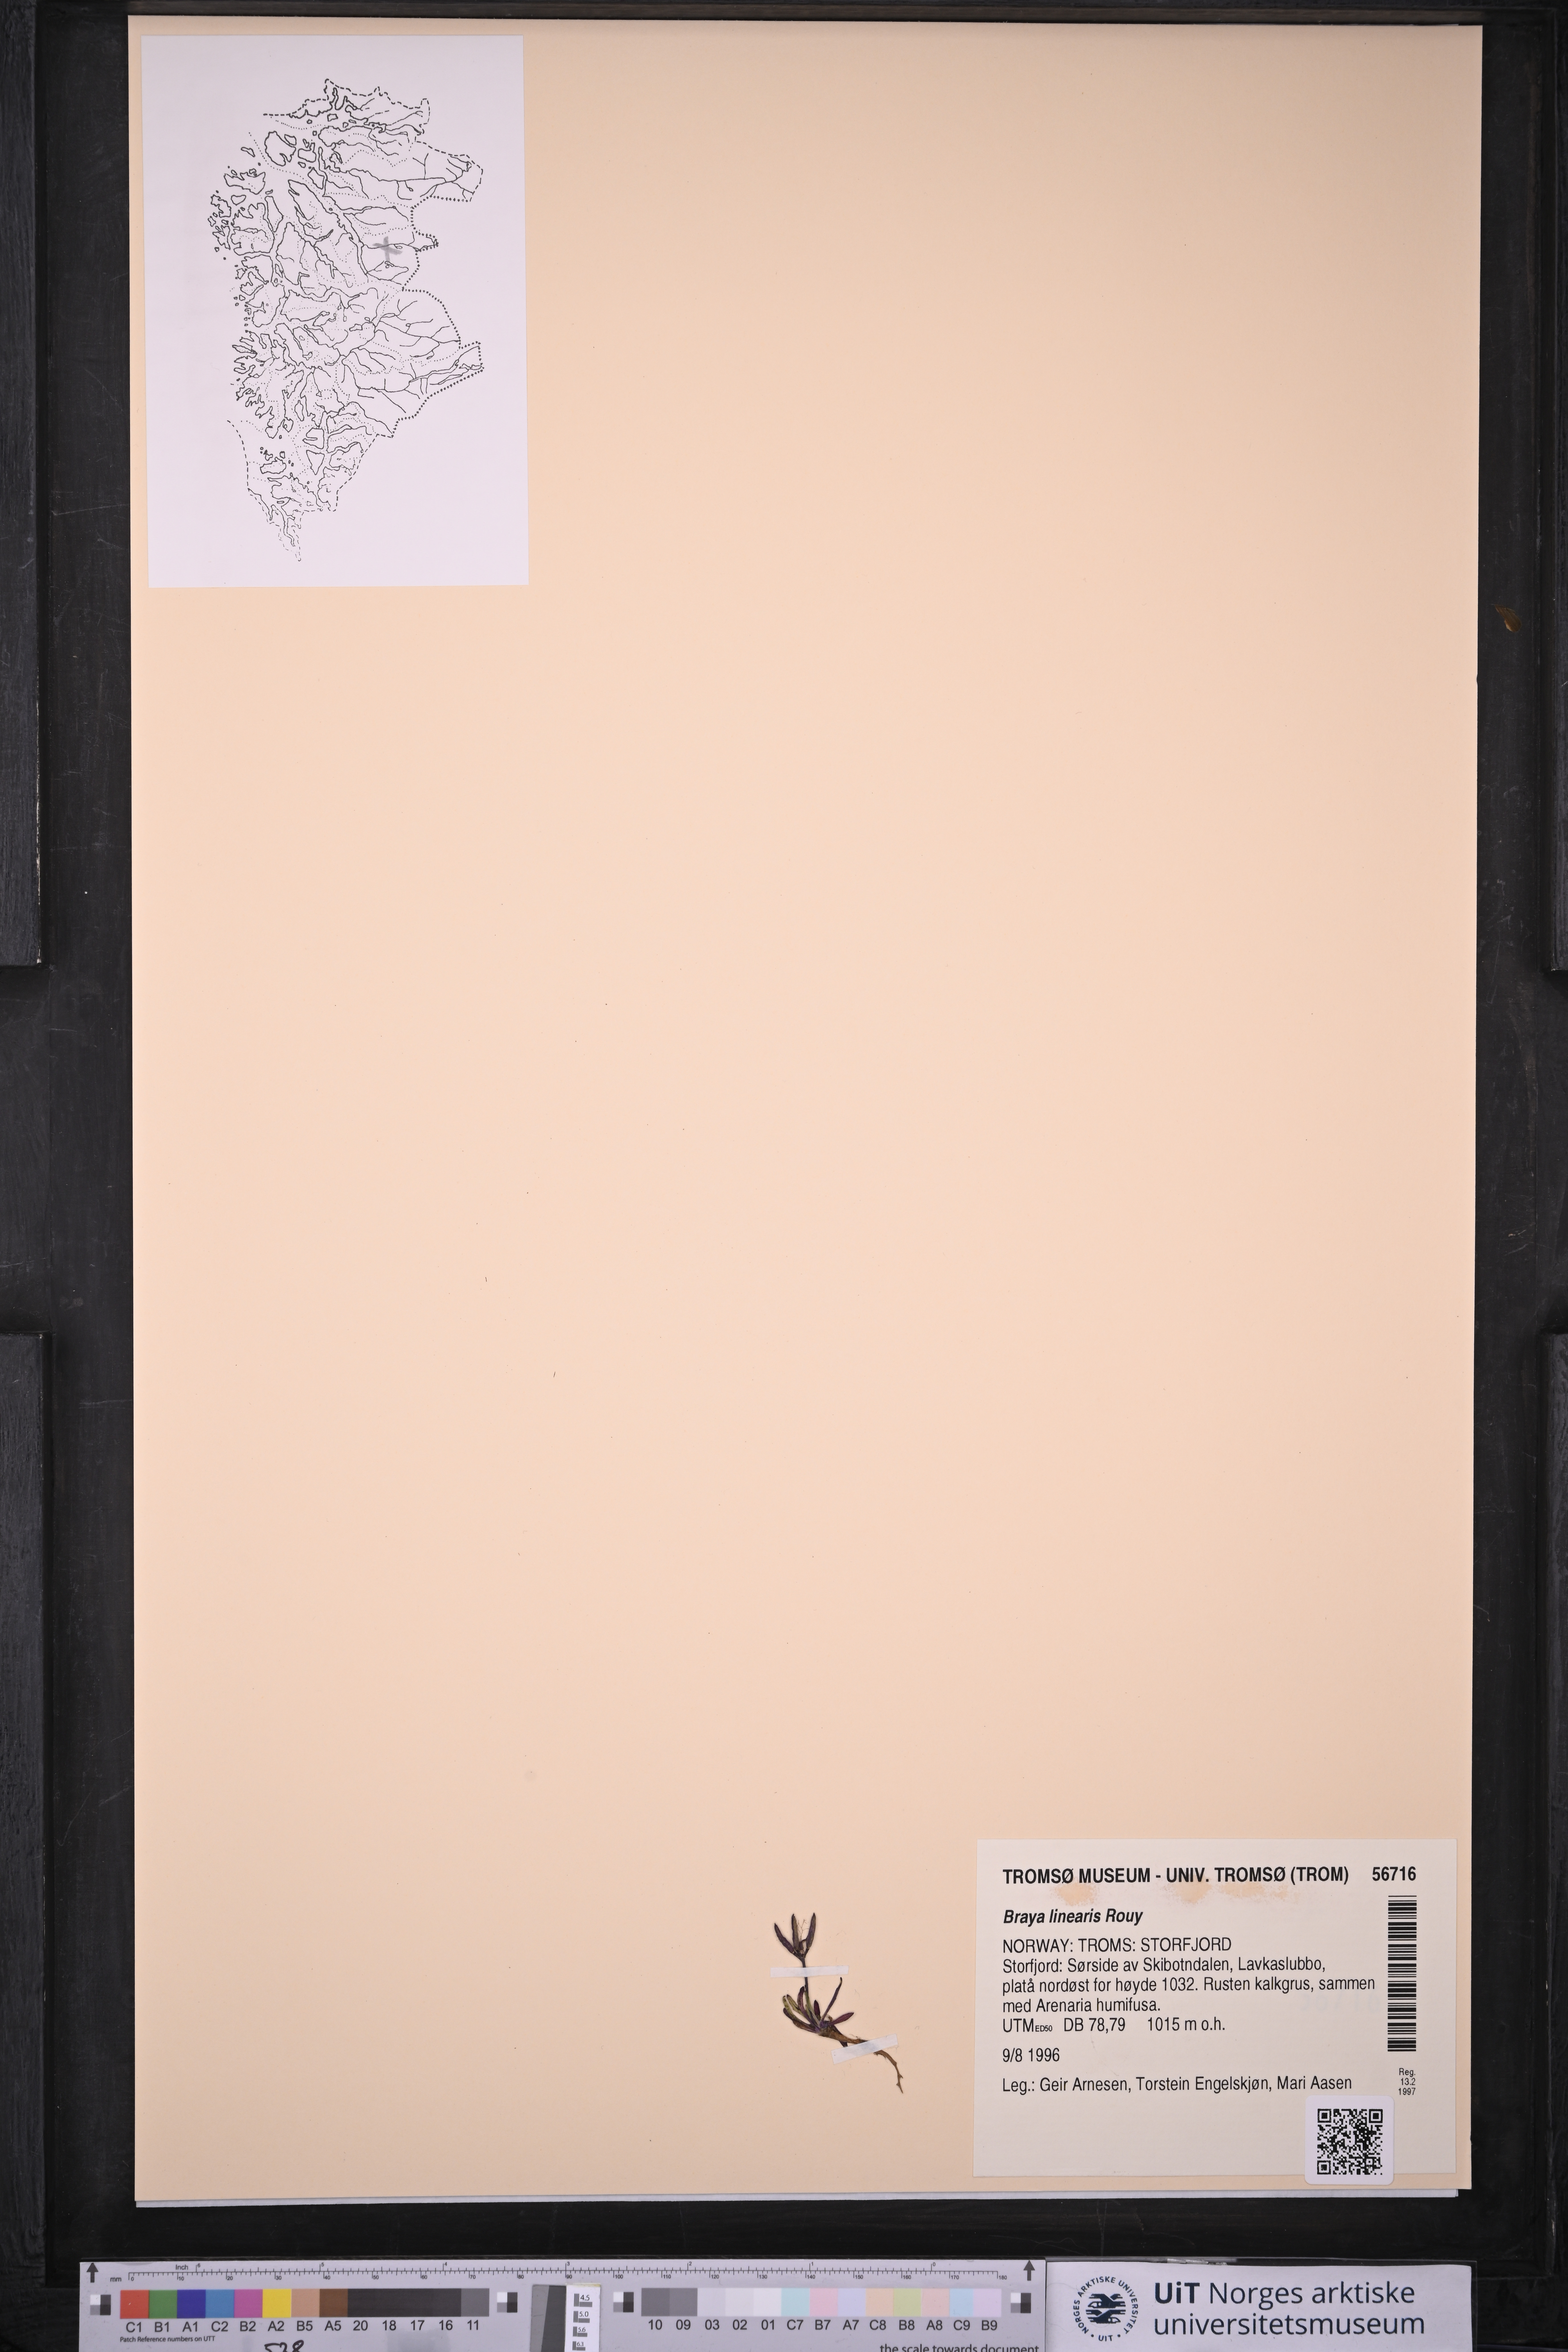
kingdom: Plantae
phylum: Tracheophyta
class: Magnoliopsida
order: Brassicales
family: Brassicaceae
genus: Braya
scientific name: Braya linearis
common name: Narrow-fruit braya
